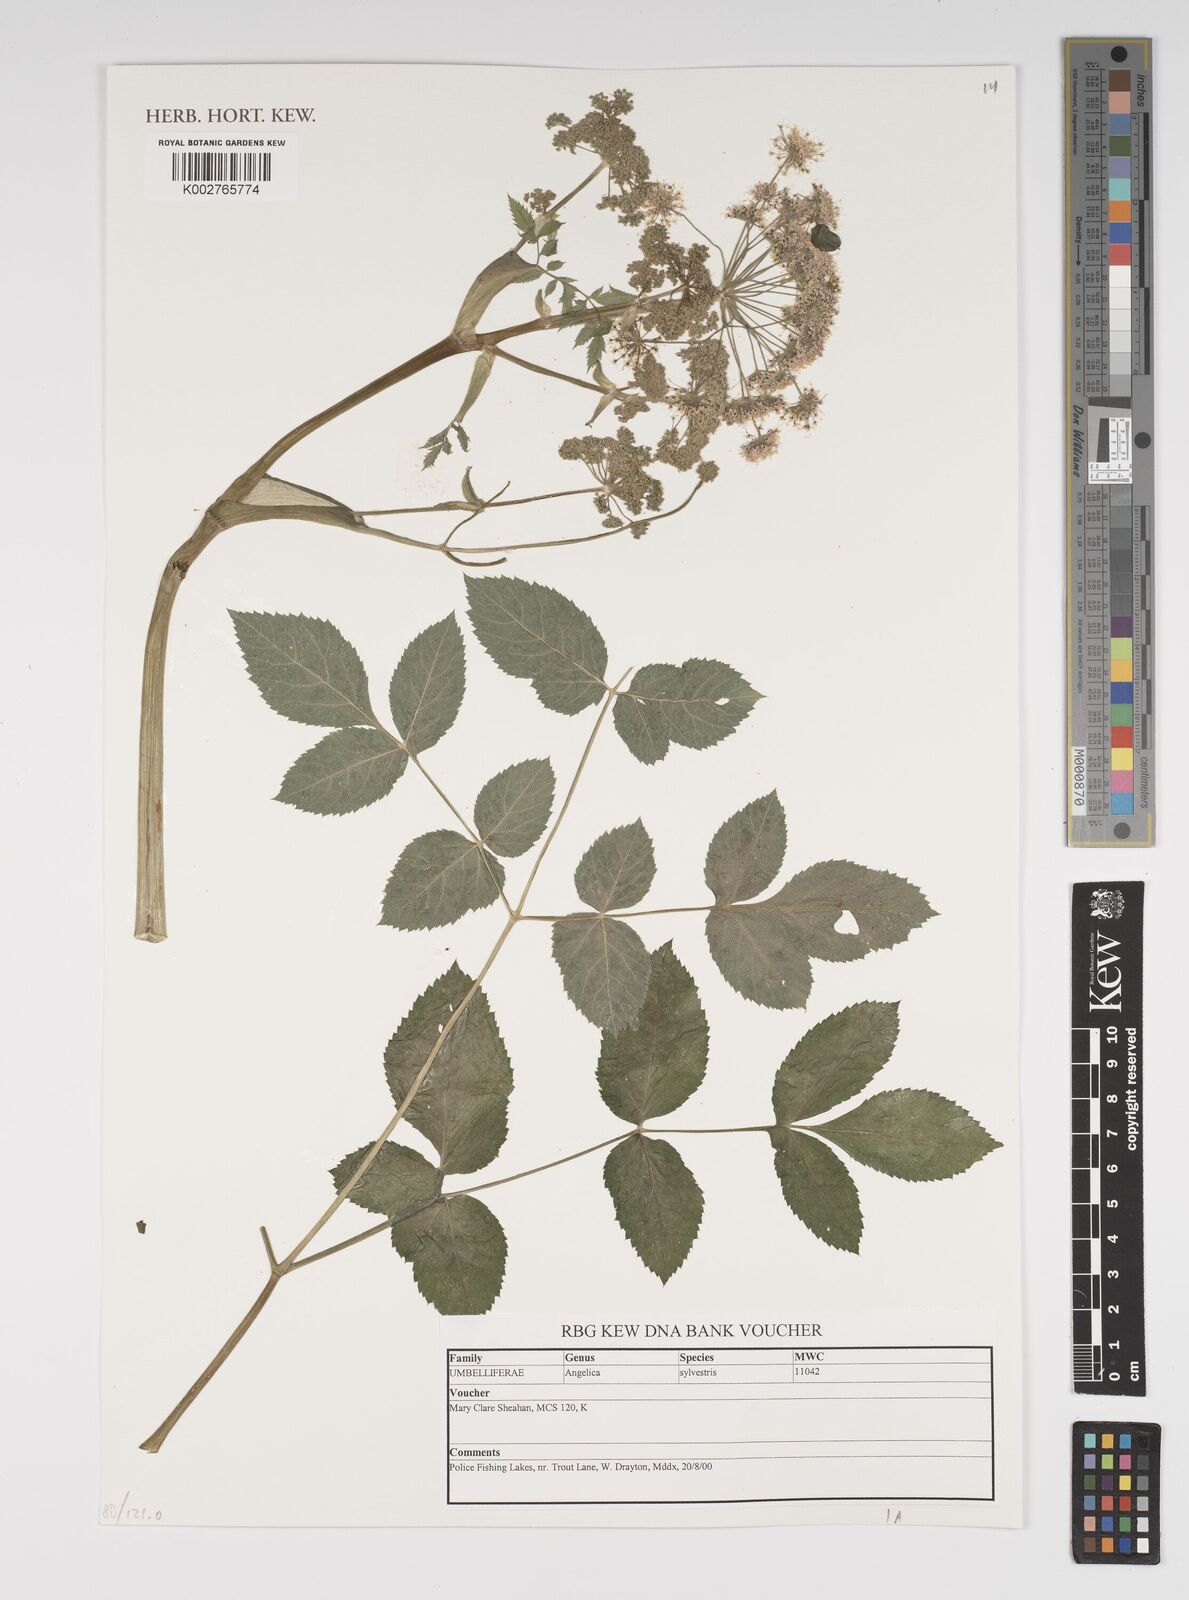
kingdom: Plantae
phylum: Tracheophyta
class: Magnoliopsida
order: Apiales
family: Apiaceae
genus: Angelica
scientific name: Angelica sylvestris
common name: Wild angelica
